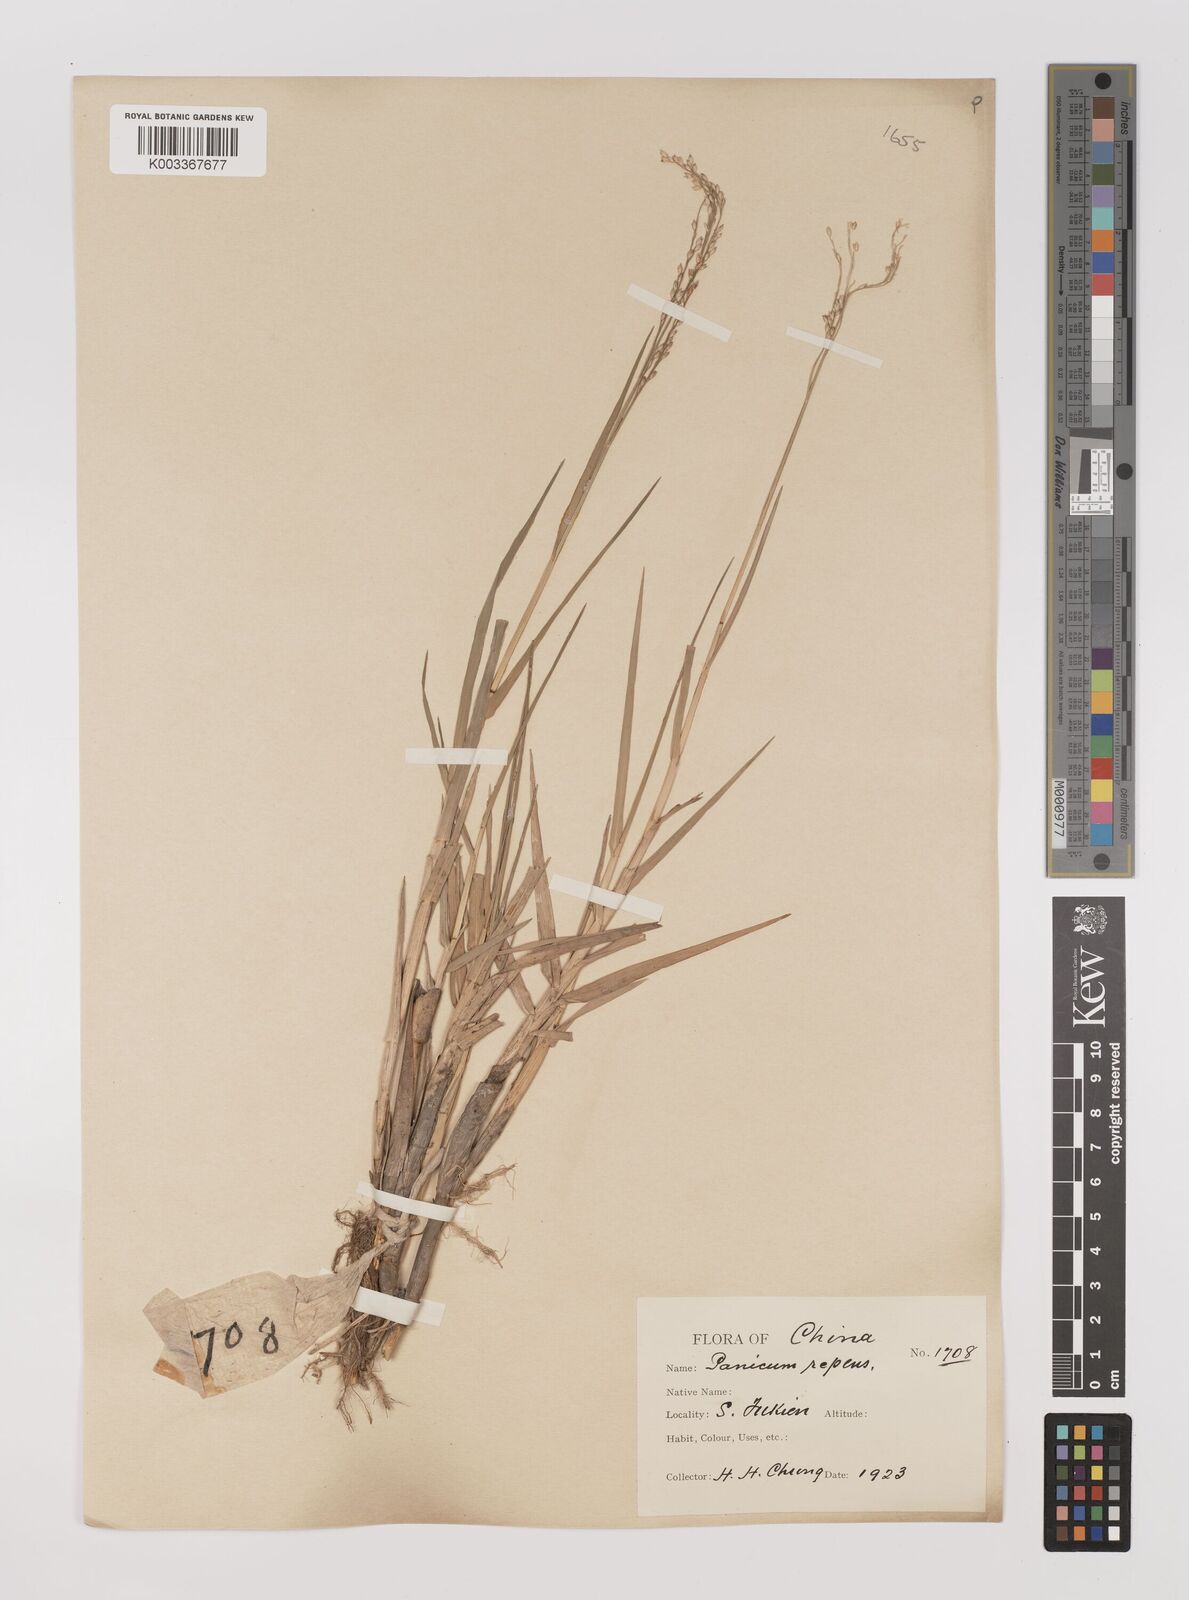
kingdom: Plantae
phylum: Tracheophyta
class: Liliopsida
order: Poales
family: Poaceae
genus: Panicum
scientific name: Panicum repens
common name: Torpedo grass
